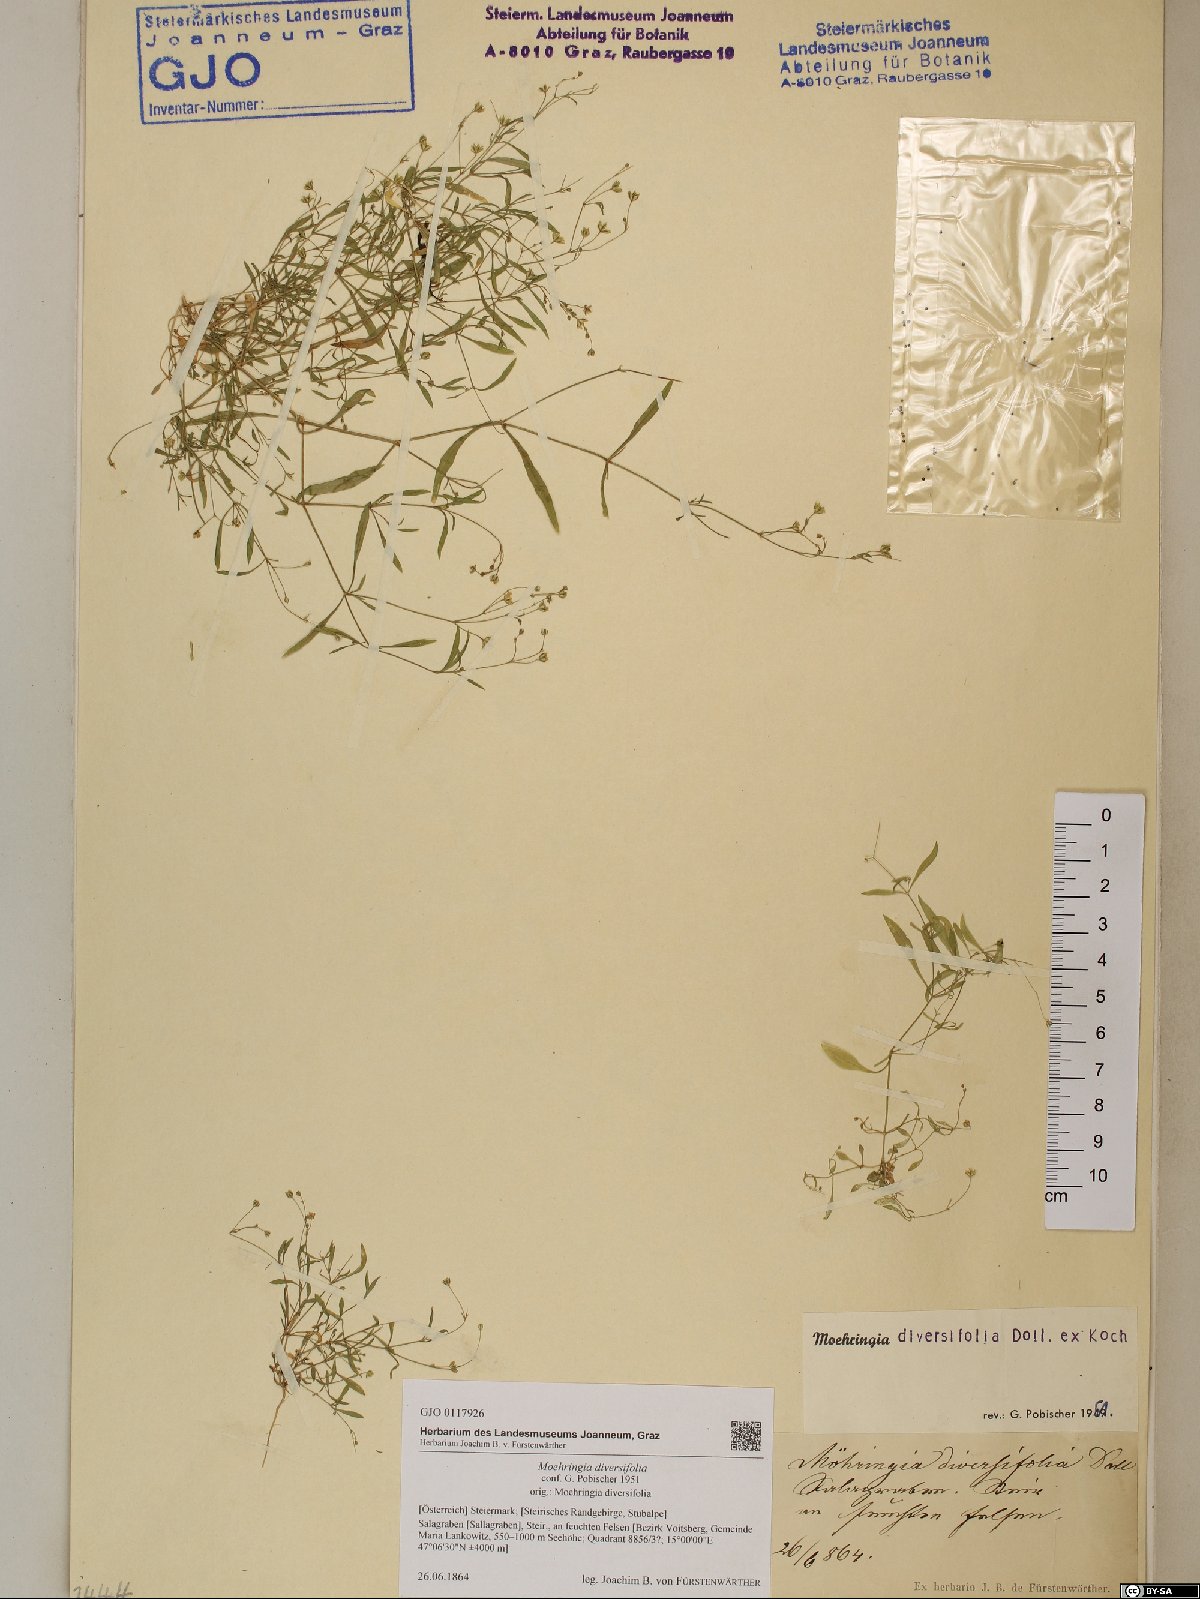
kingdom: Plantae
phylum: Tracheophyta
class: Magnoliopsida
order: Caryophyllales
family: Caryophyllaceae
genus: Moehringia
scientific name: Moehringia diversifolia
